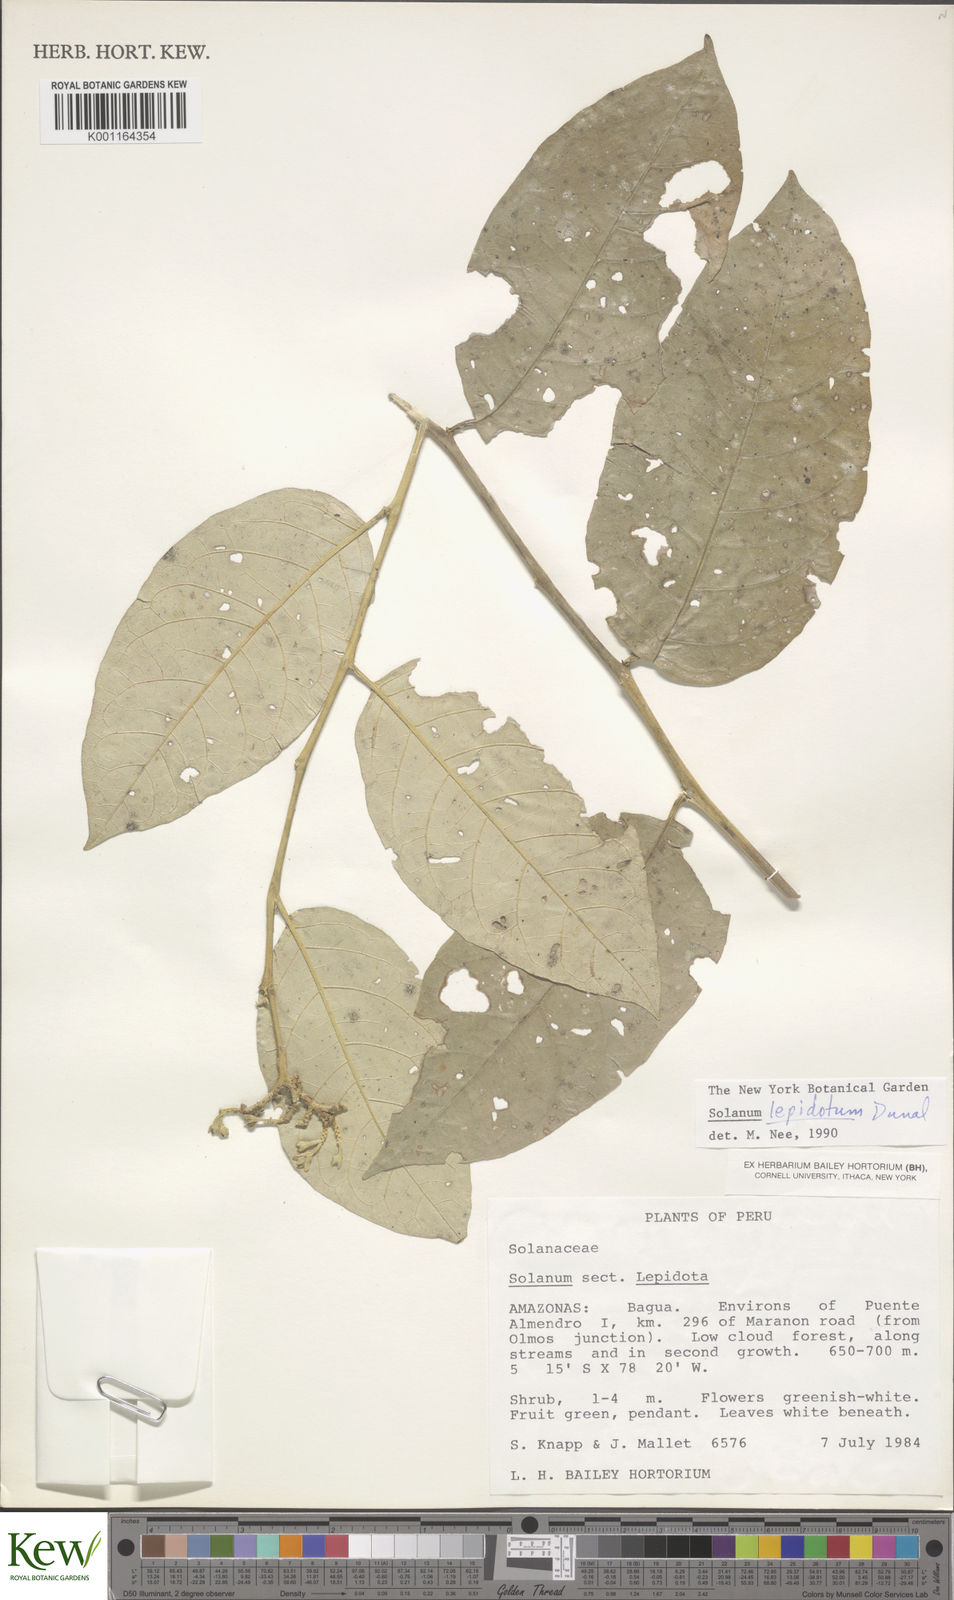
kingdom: Plantae
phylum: Tracheophyta
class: Magnoliopsida
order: Solanales
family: Solanaceae
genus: Solanum
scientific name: Solanum lepidotum
